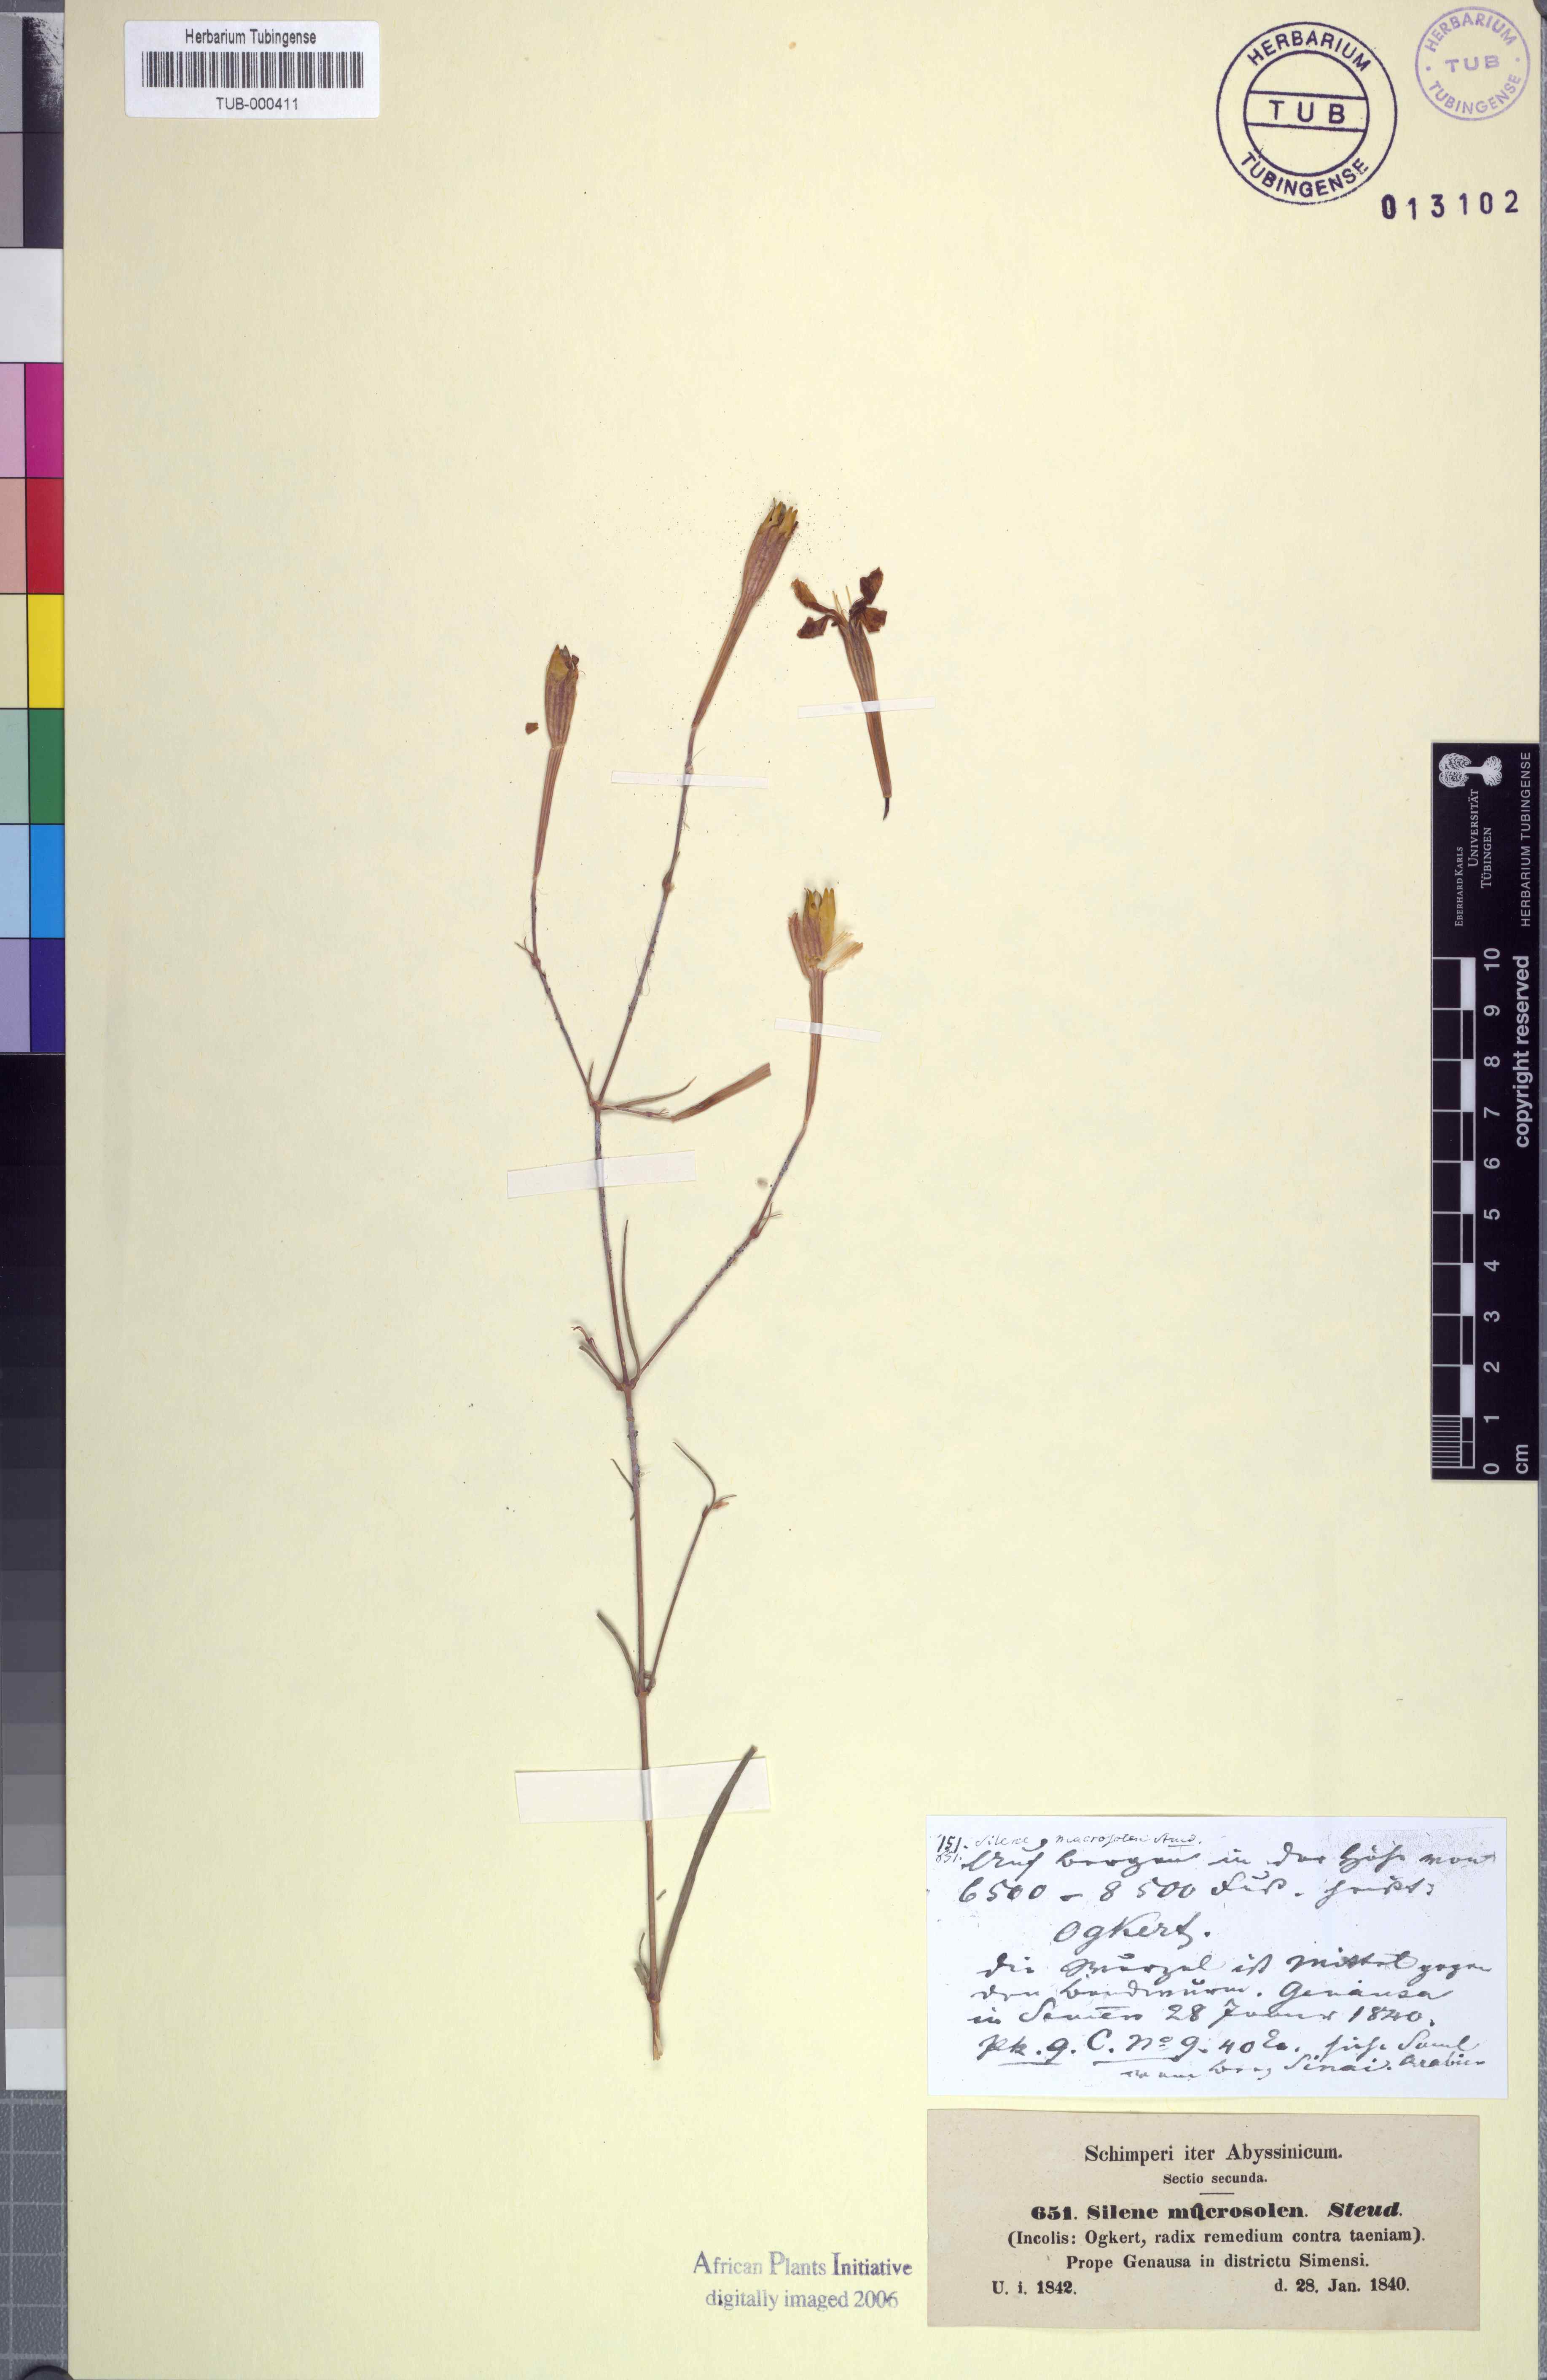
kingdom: Plantae
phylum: Tracheophyta
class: Magnoliopsida
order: Caryophyllales
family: Caryophyllaceae
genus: Silene
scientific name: Silene macrosolen
